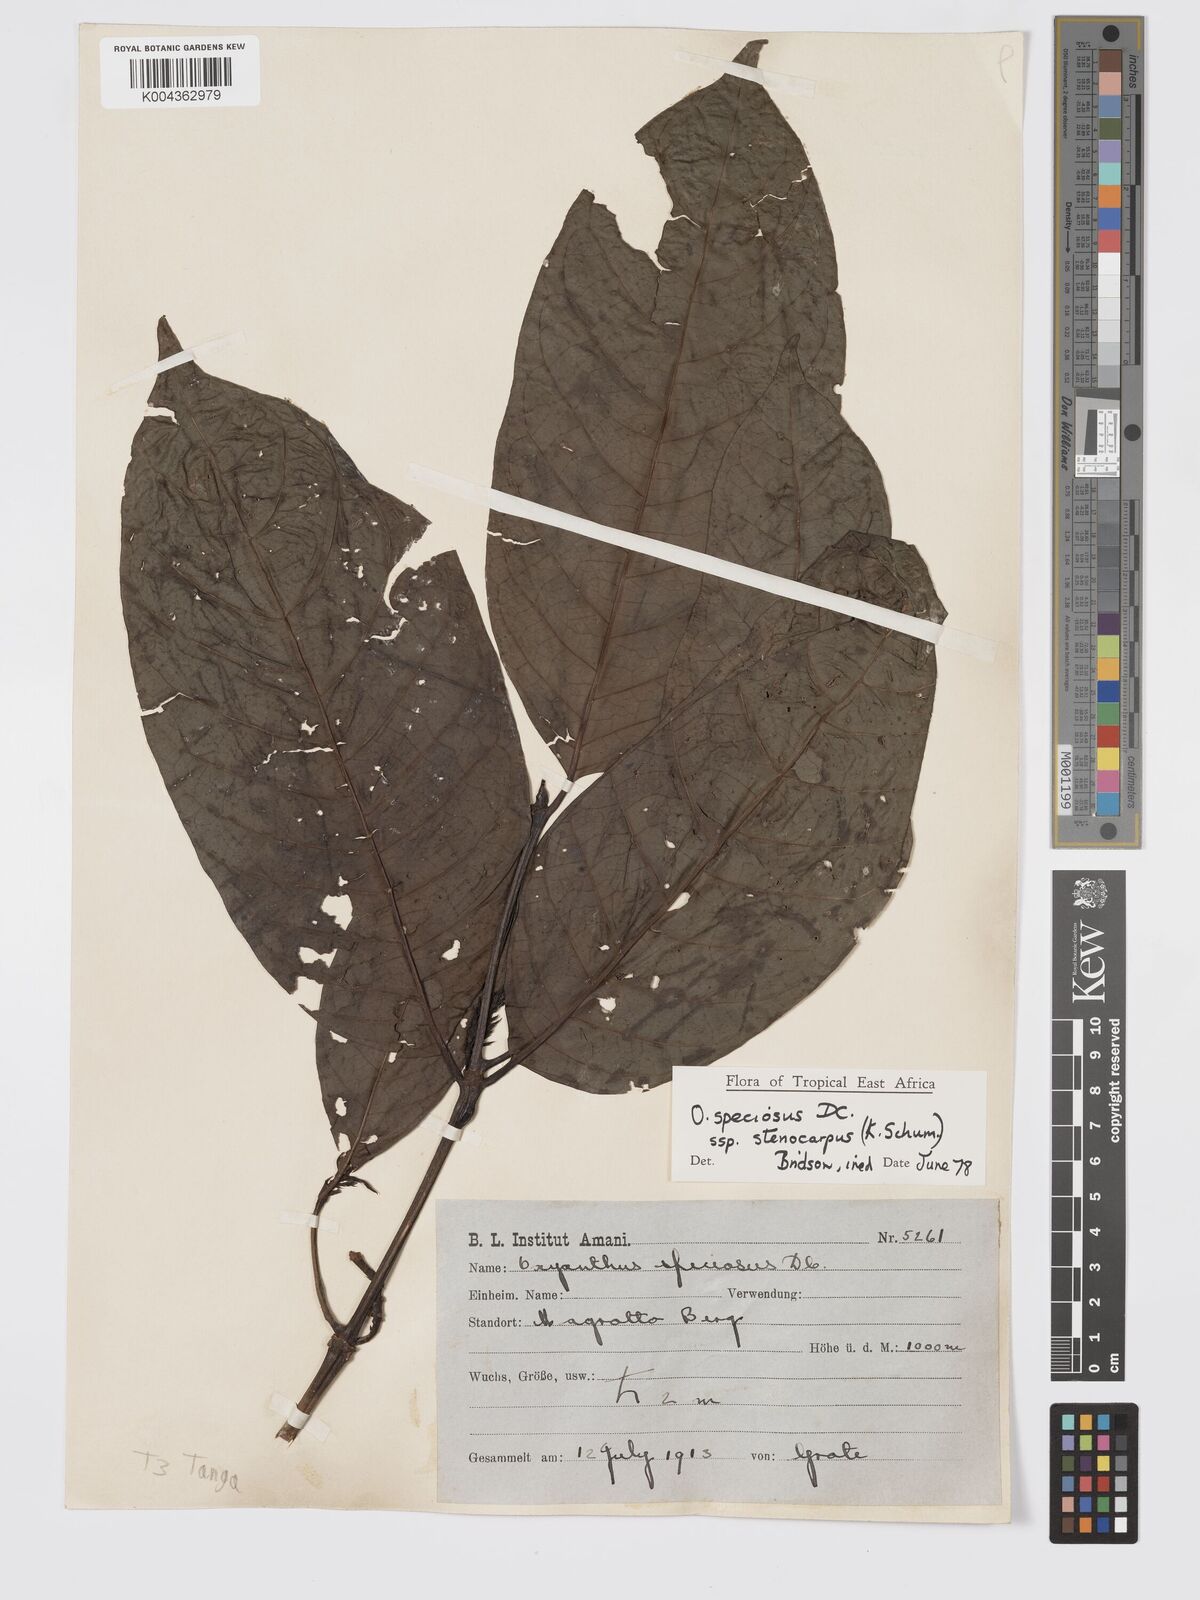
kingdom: Plantae
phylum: Tracheophyta
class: Magnoliopsida
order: Gentianales
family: Rubiaceae
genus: Oxyanthus
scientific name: Oxyanthus speciosus
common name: Whipstick loquat
